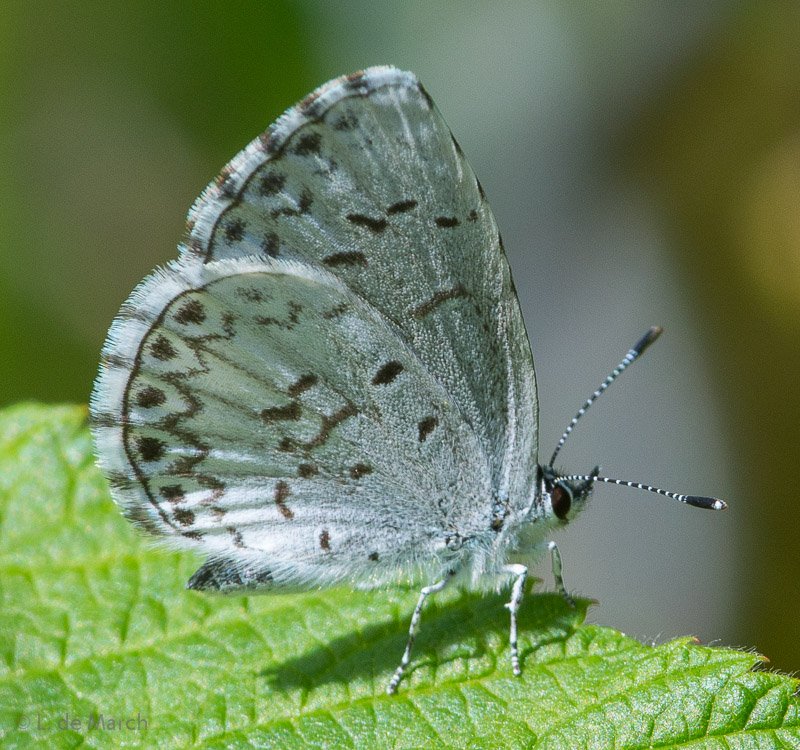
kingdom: Animalia
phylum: Arthropoda
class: Insecta
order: Lepidoptera
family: Lycaenidae
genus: Celastrina
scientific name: Celastrina lucia
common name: Northern Spring Azure
